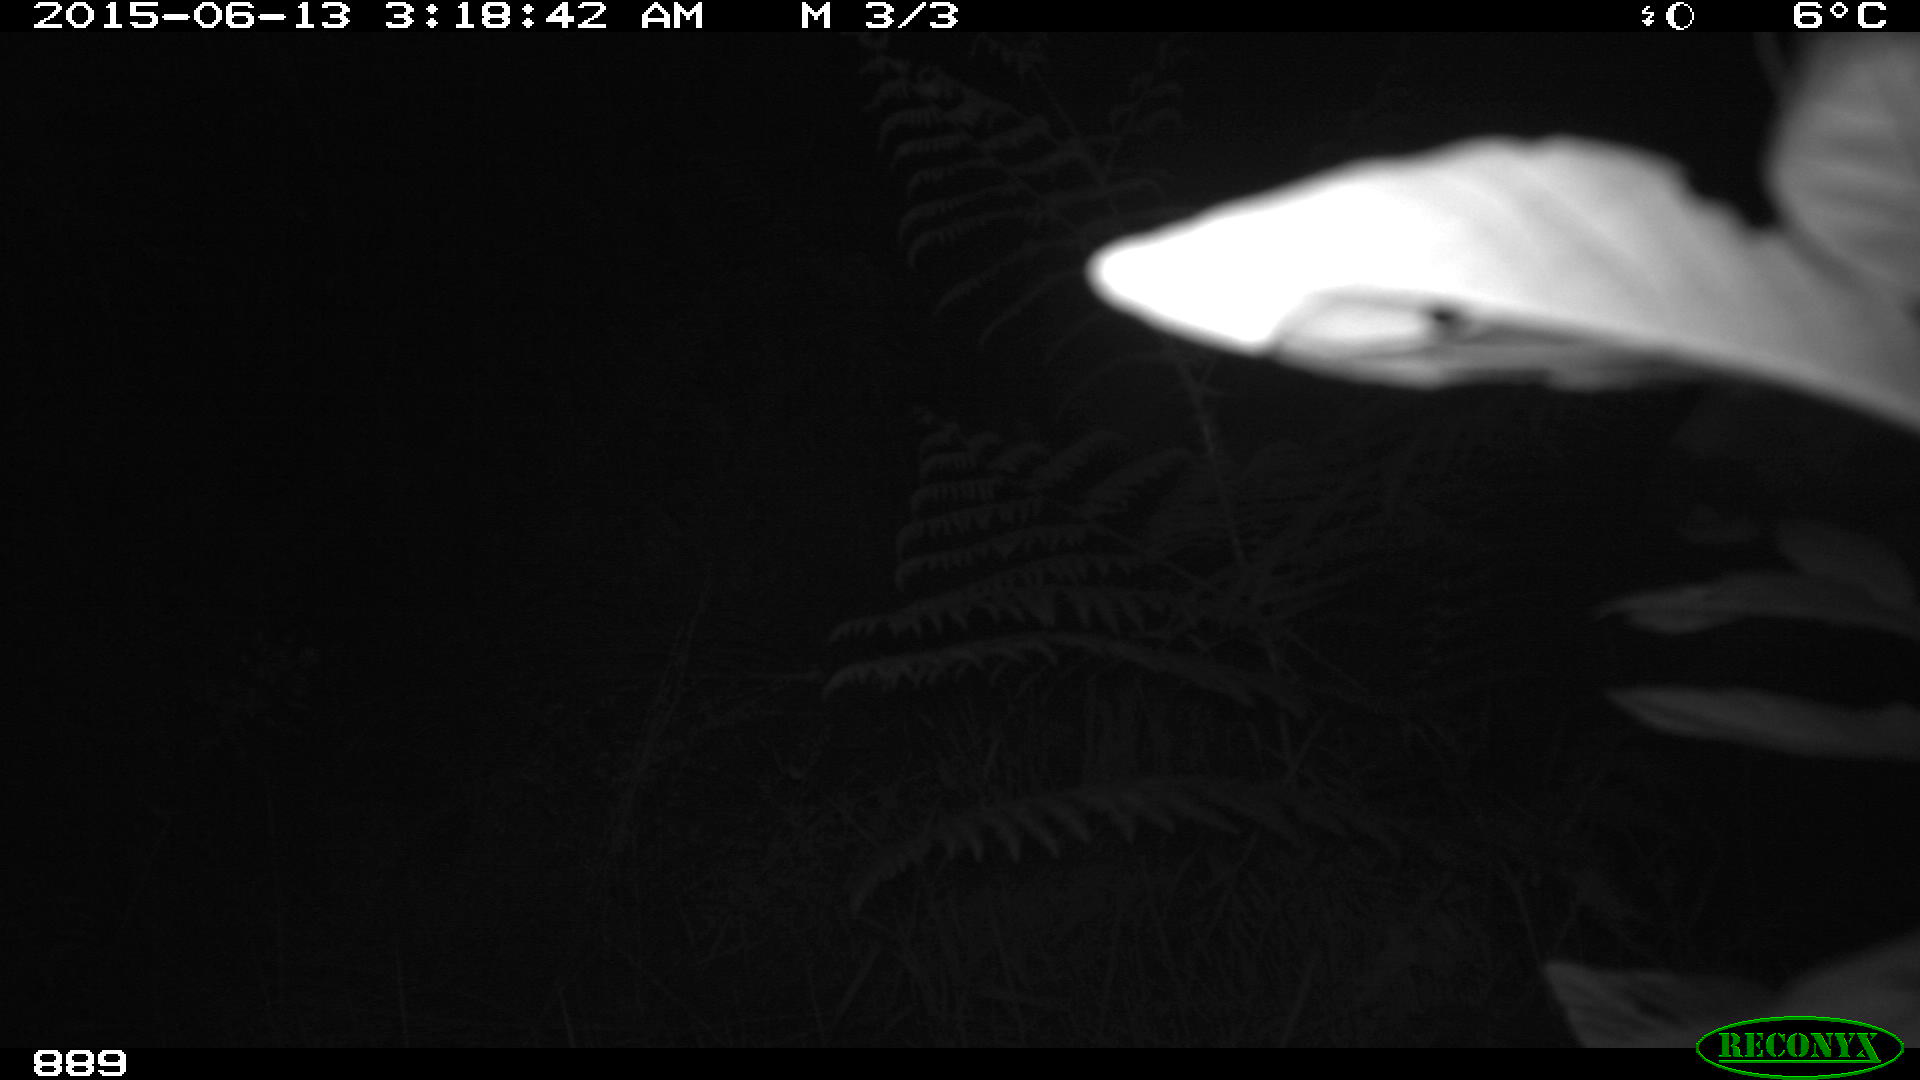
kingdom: Animalia
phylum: Chordata
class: Mammalia
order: Artiodactyla
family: Cervidae
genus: Capreolus
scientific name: Capreolus capreolus
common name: Western roe deer
